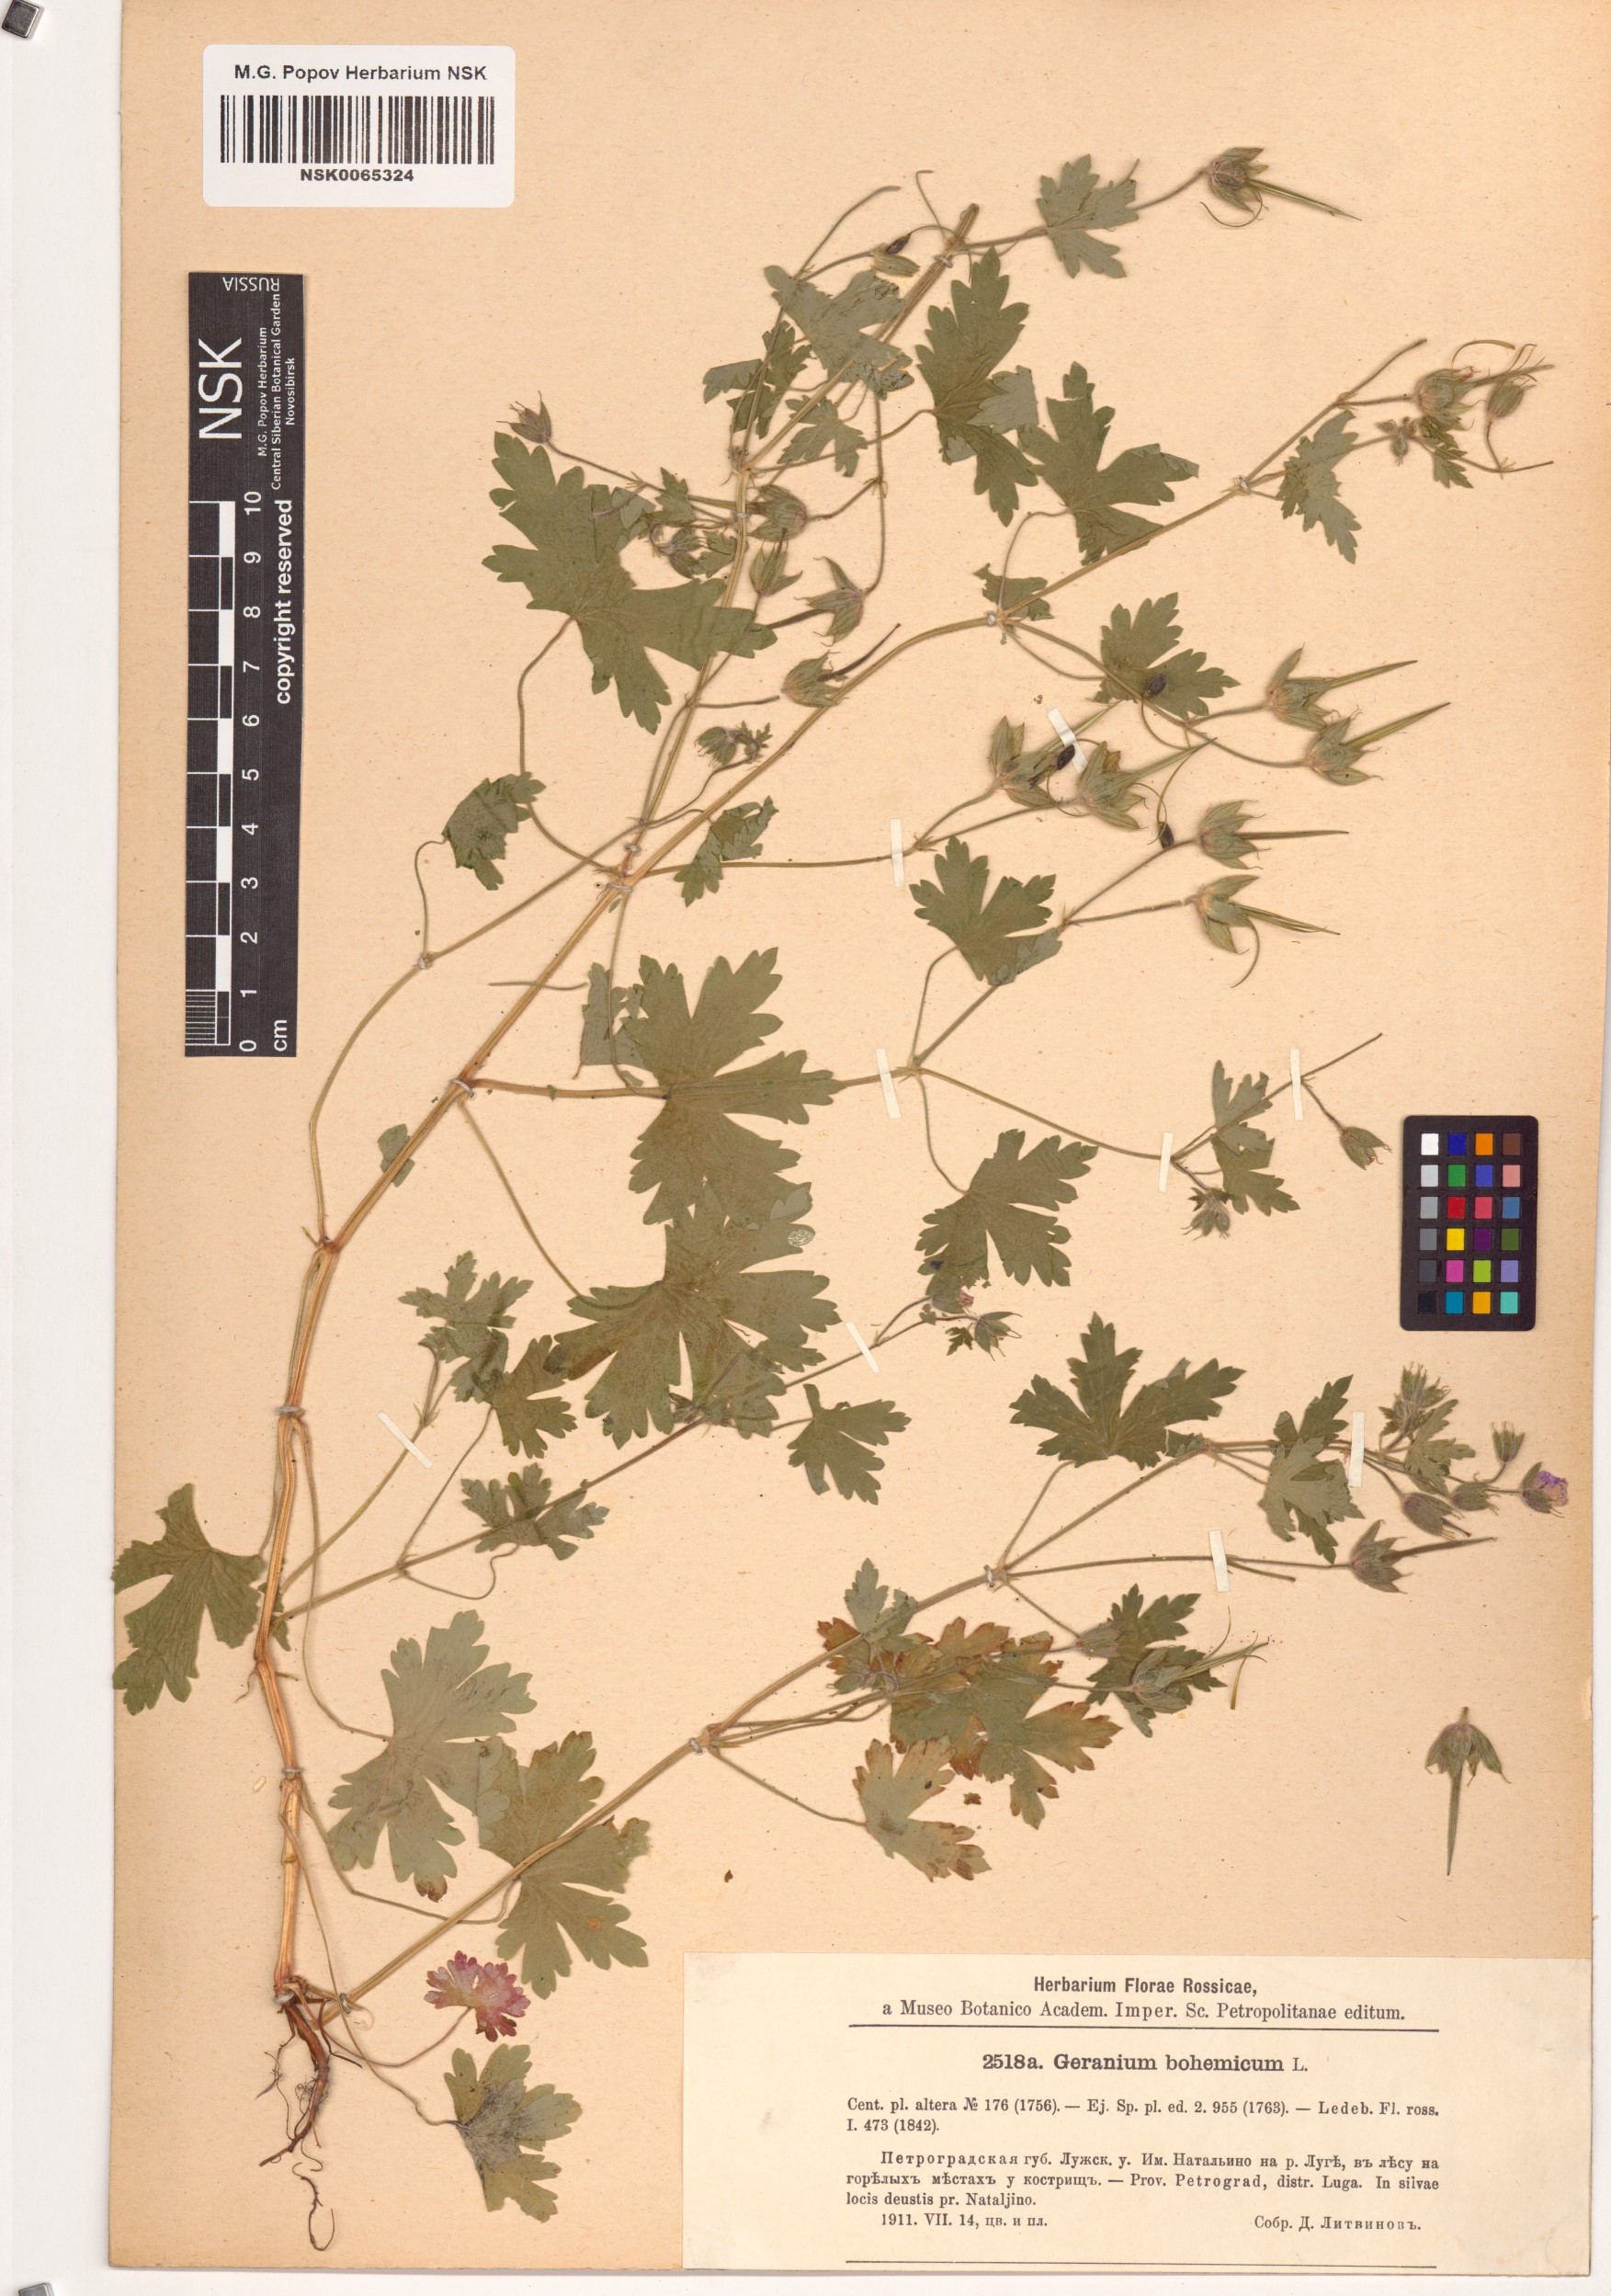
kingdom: Plantae
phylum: Tracheophyta
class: Magnoliopsida
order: Geraniales
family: Geraniaceae
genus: Geranium
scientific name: Geranium bohemicum
